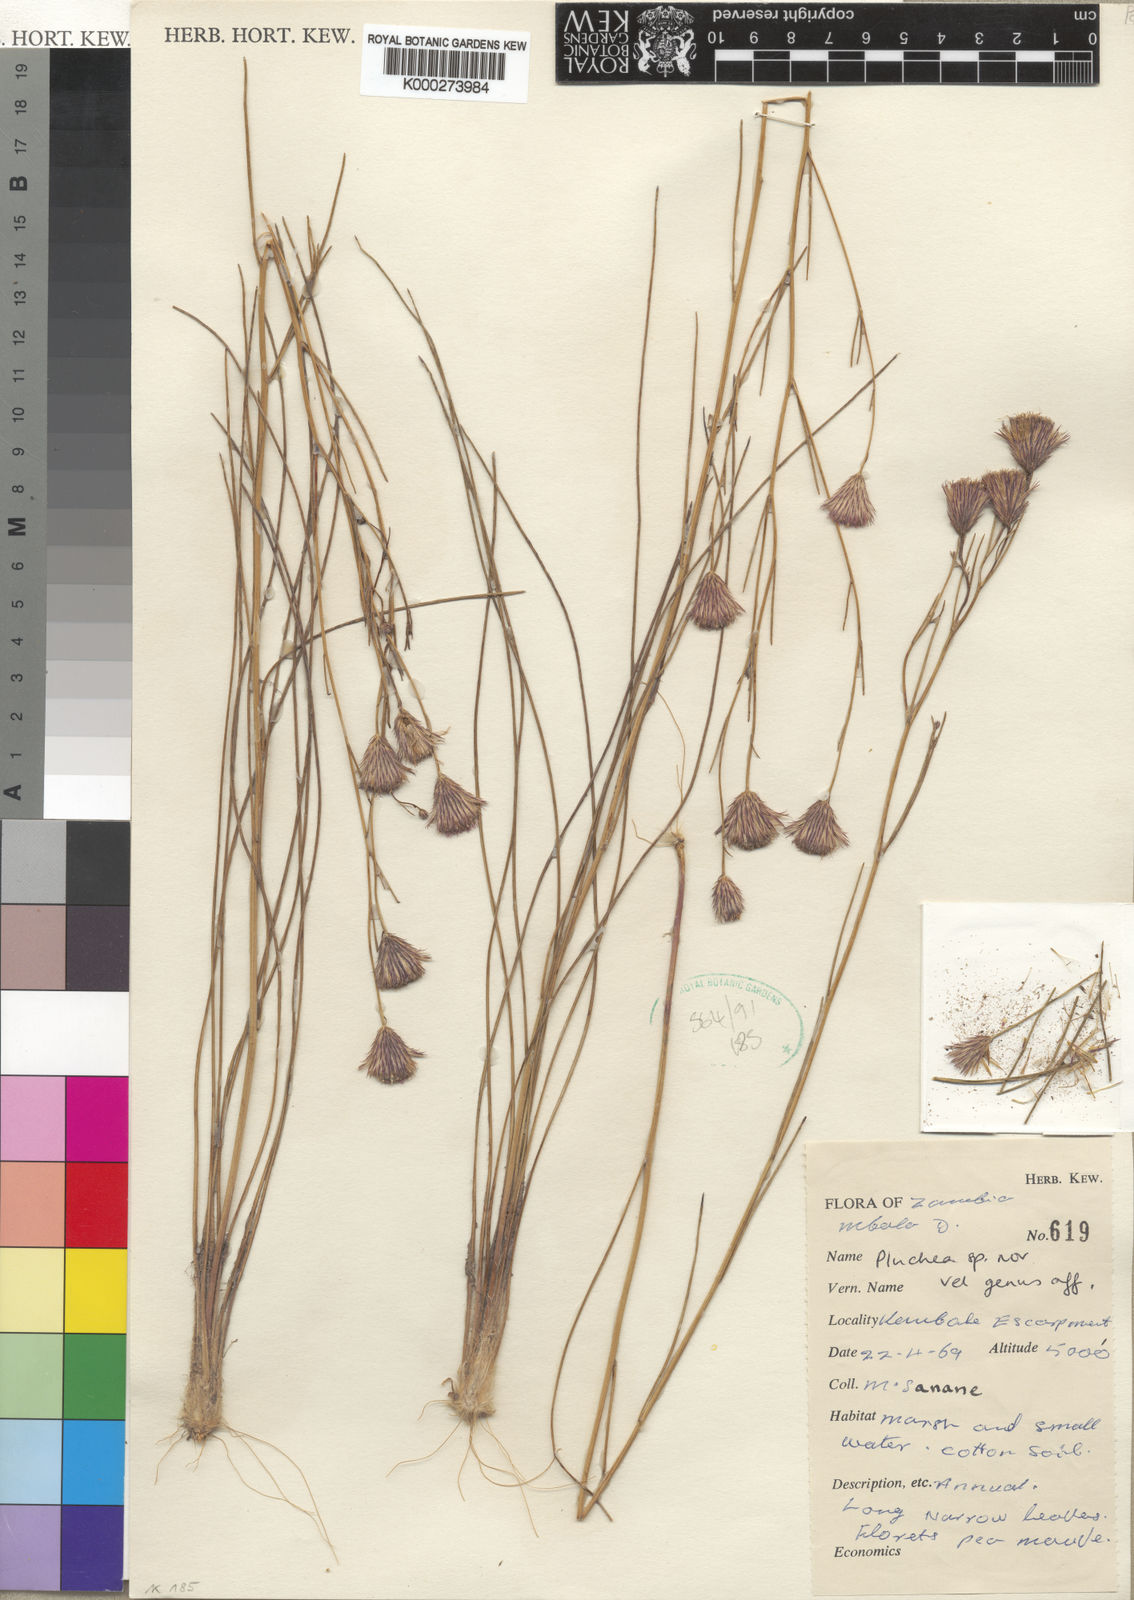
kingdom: Plantae
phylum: Tracheophyta
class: Magnoliopsida
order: Asterales
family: Asteraceae
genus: Nicolasia
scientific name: Nicolasia coronata
